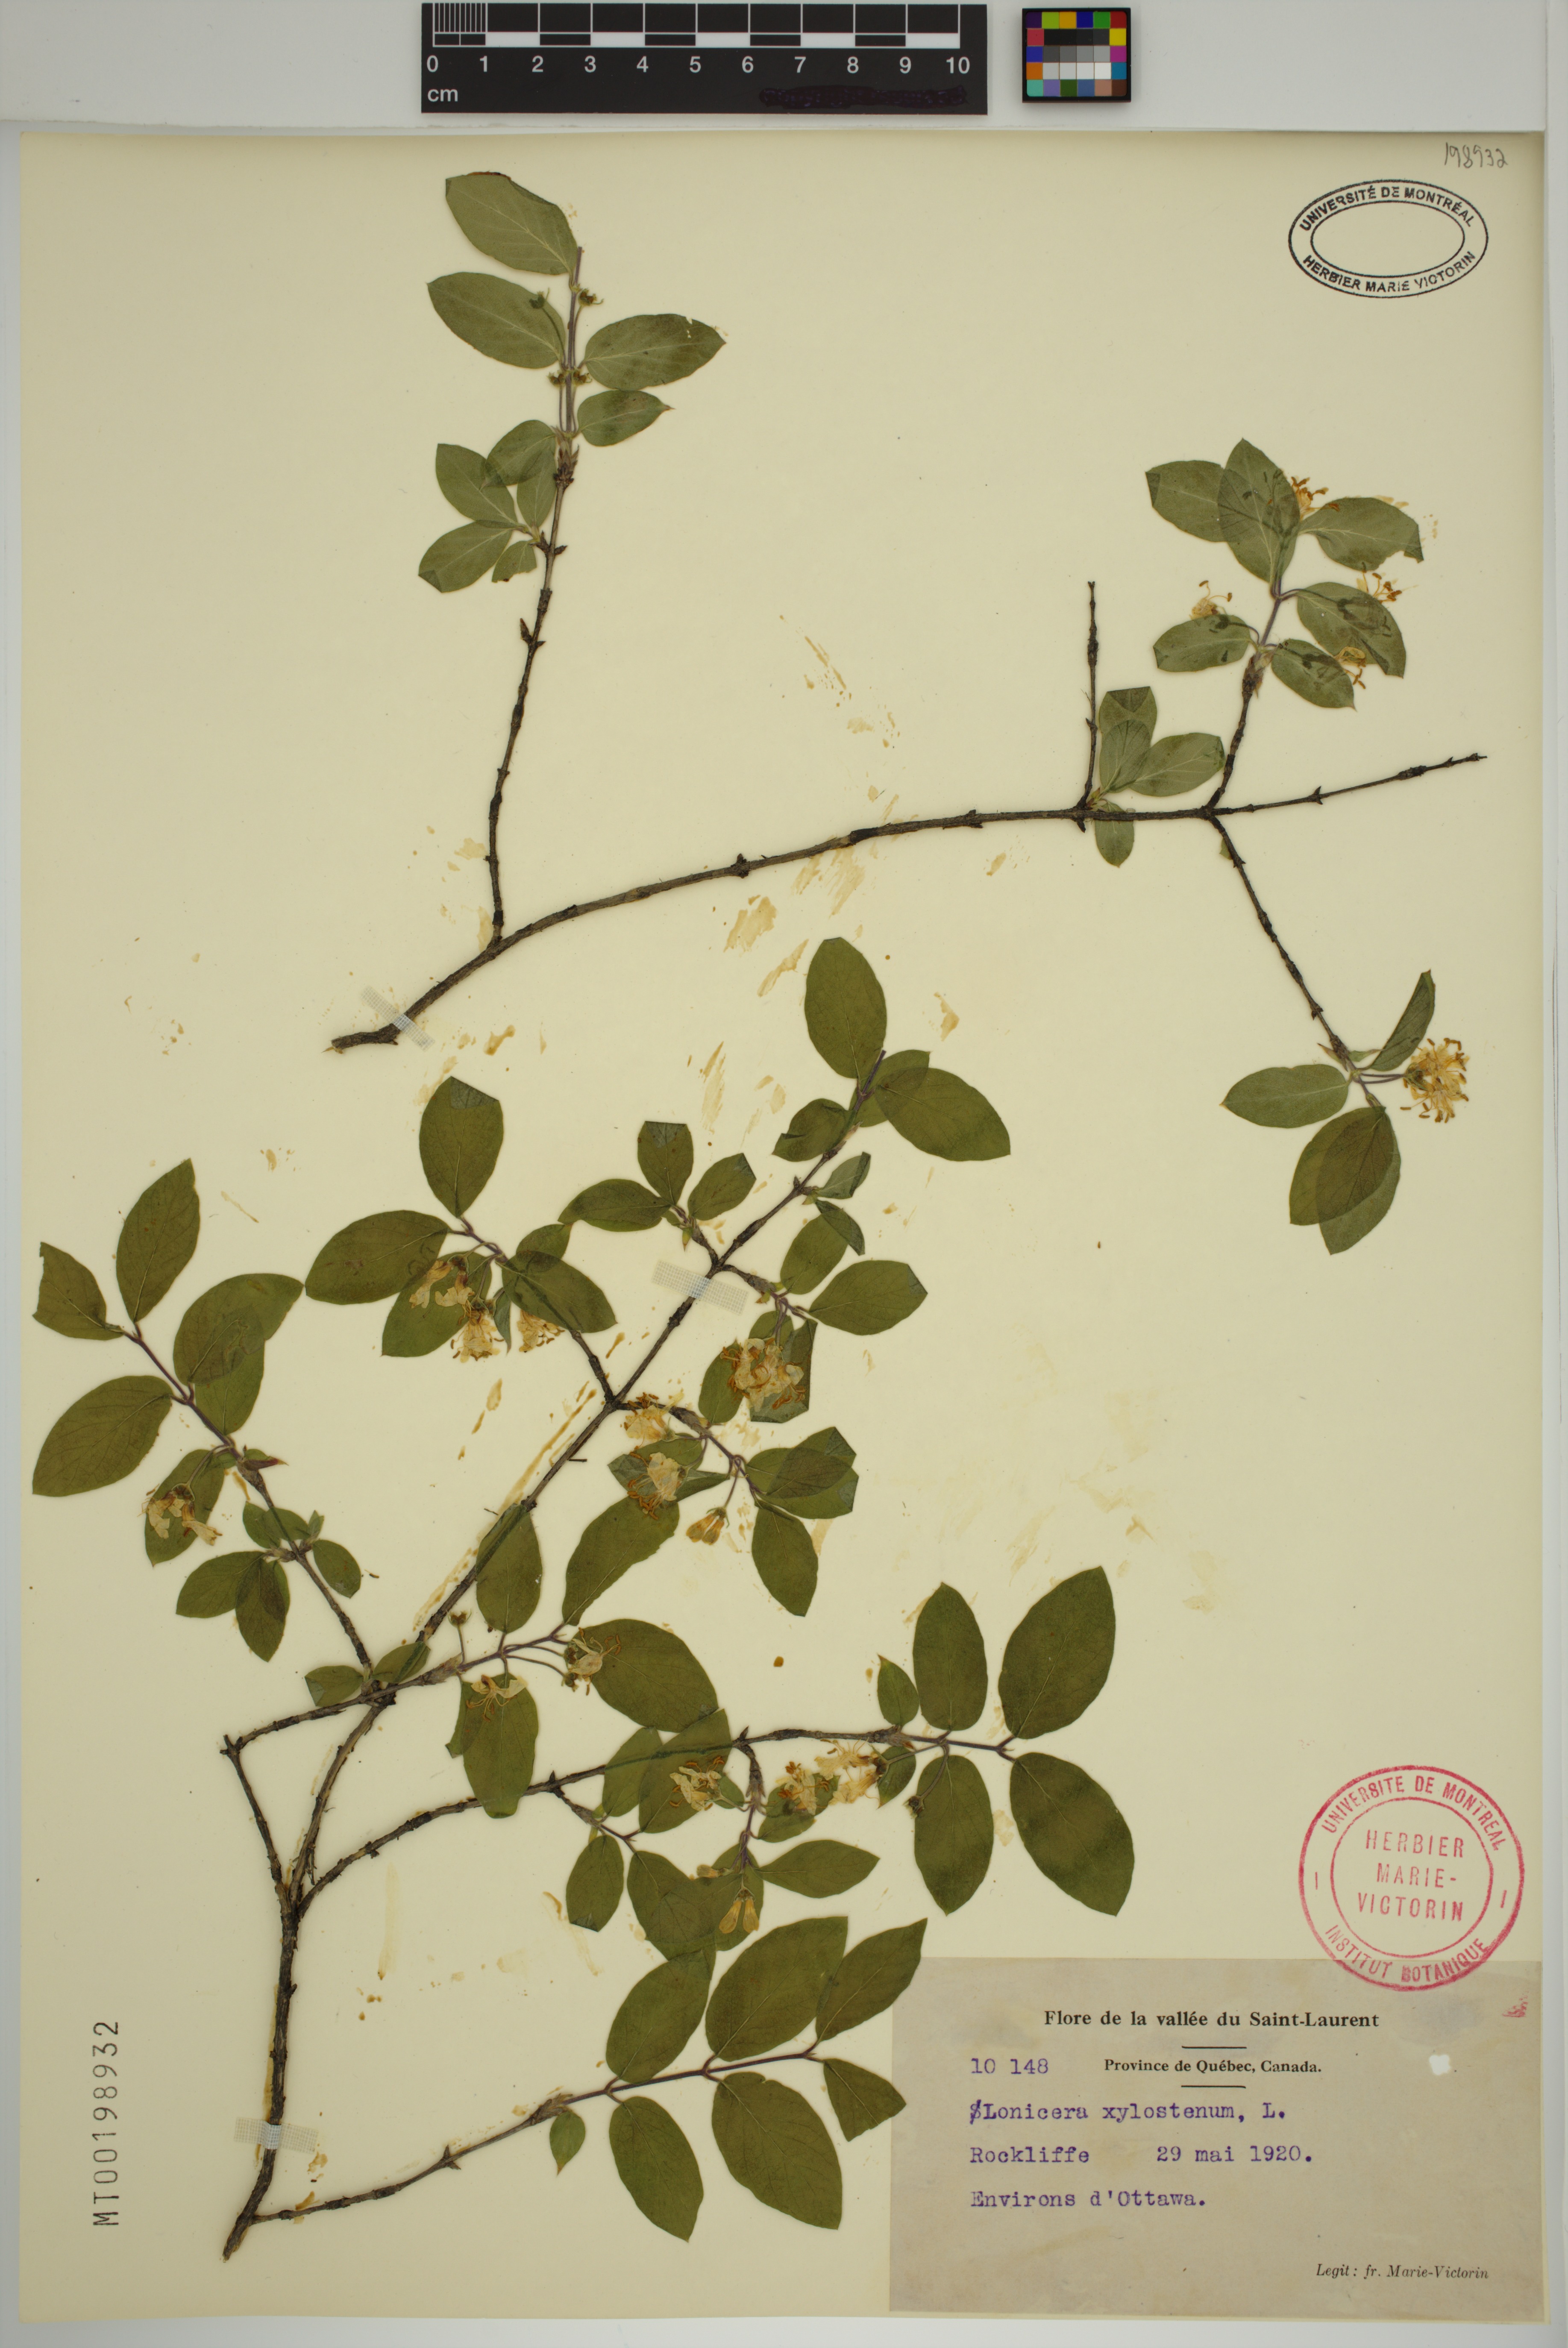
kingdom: Plantae
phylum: Tracheophyta
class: Magnoliopsida
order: Dipsacales
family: Caprifoliaceae
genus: Lonicera
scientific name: Lonicera xylosteum
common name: Fly honeysuckle
